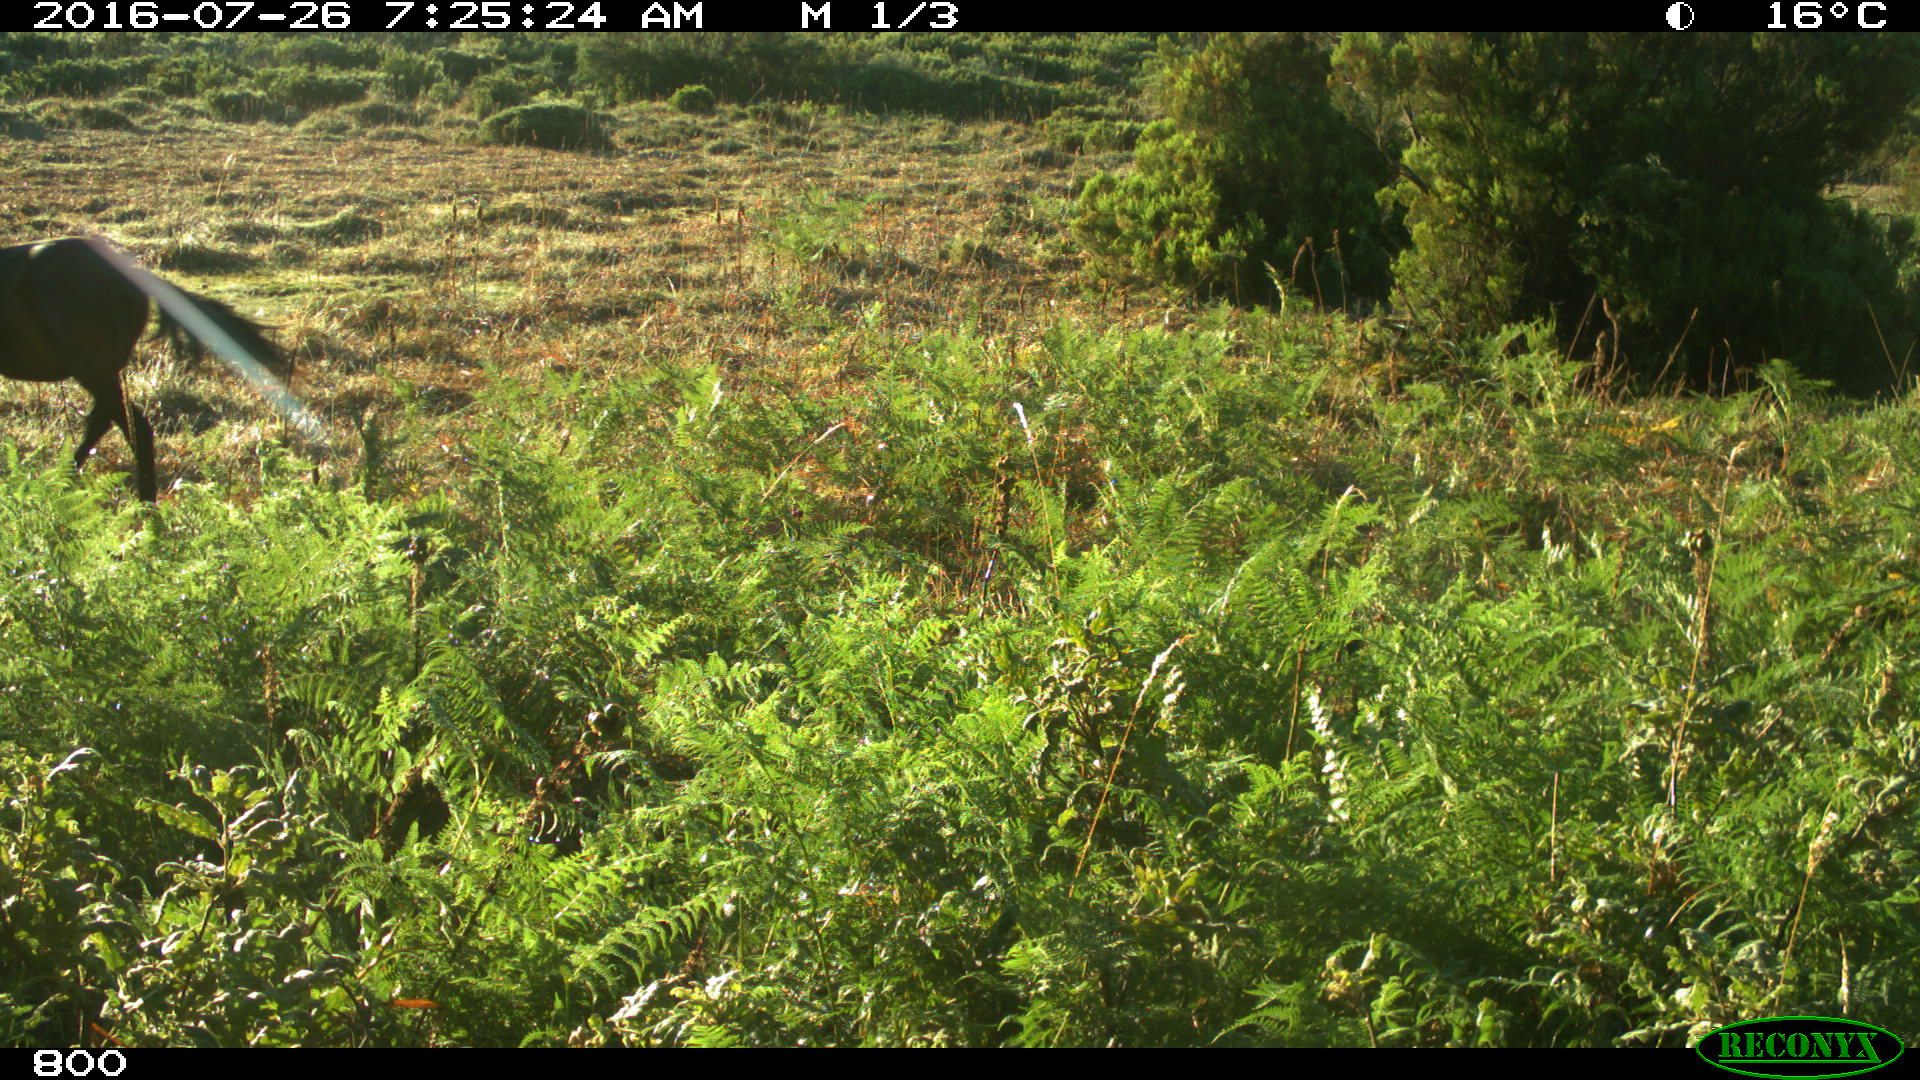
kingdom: Animalia
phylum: Chordata
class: Mammalia
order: Perissodactyla
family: Equidae
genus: Equus
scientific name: Equus caballus
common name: Horse
